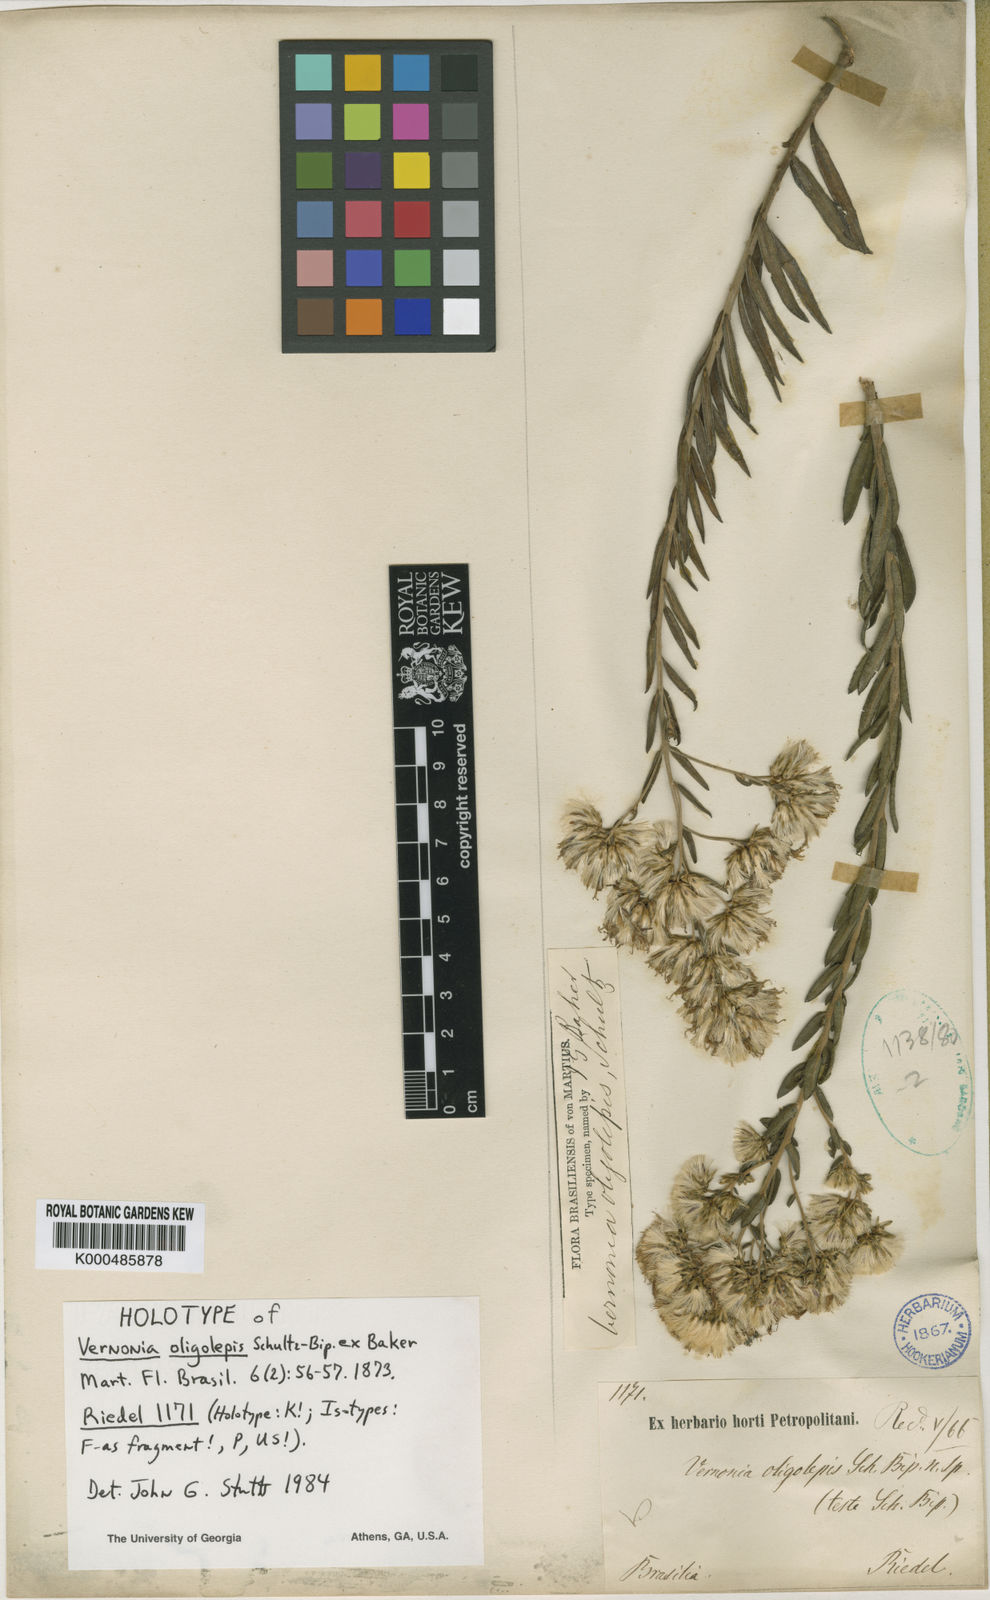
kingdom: Plantae
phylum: Tracheophyta
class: Magnoliopsida
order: Asterales
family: Asteraceae
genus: Vernonanthura
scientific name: Vernonanthura oligolepis
